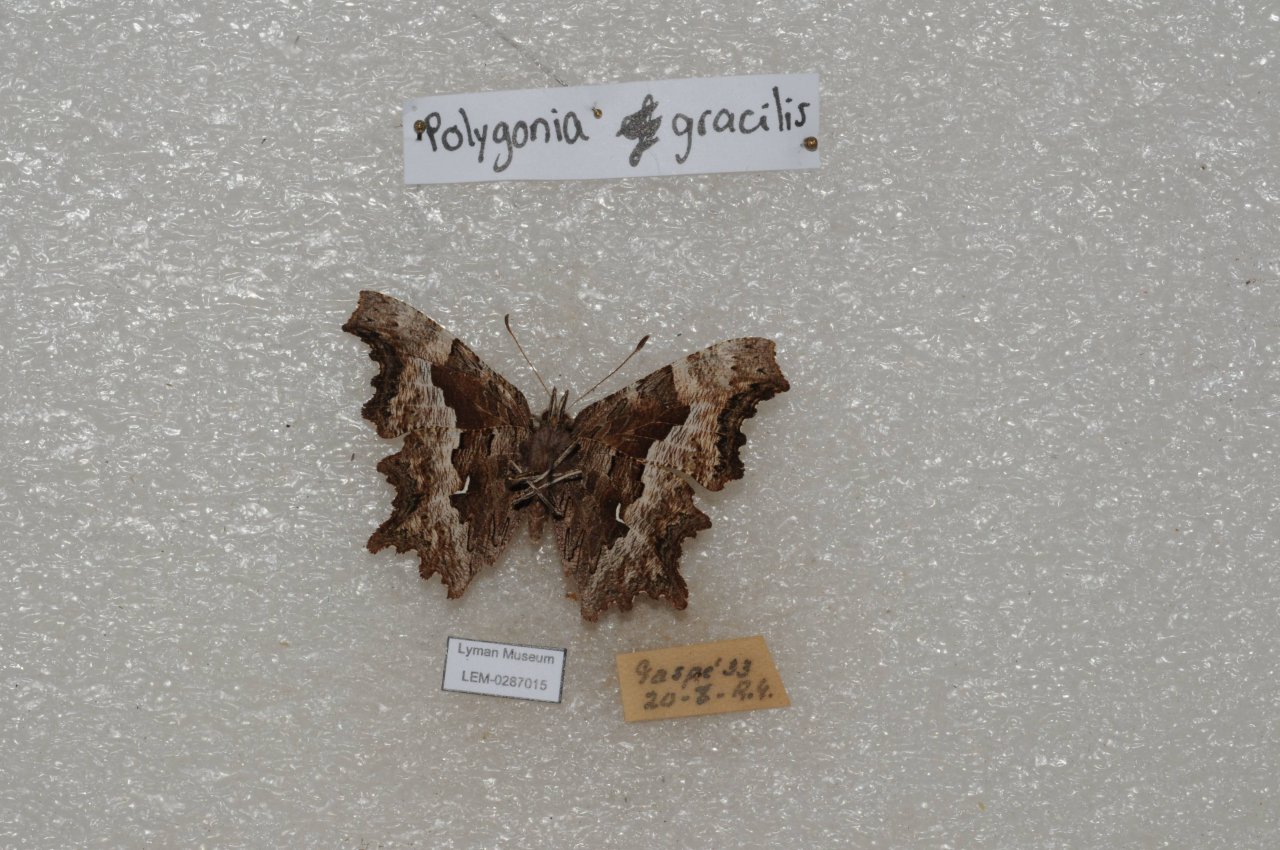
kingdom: Animalia
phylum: Arthropoda
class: Insecta
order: Lepidoptera
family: Nymphalidae
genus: Polygonia
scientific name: Polygonia gracilis
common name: Hoary Comma
